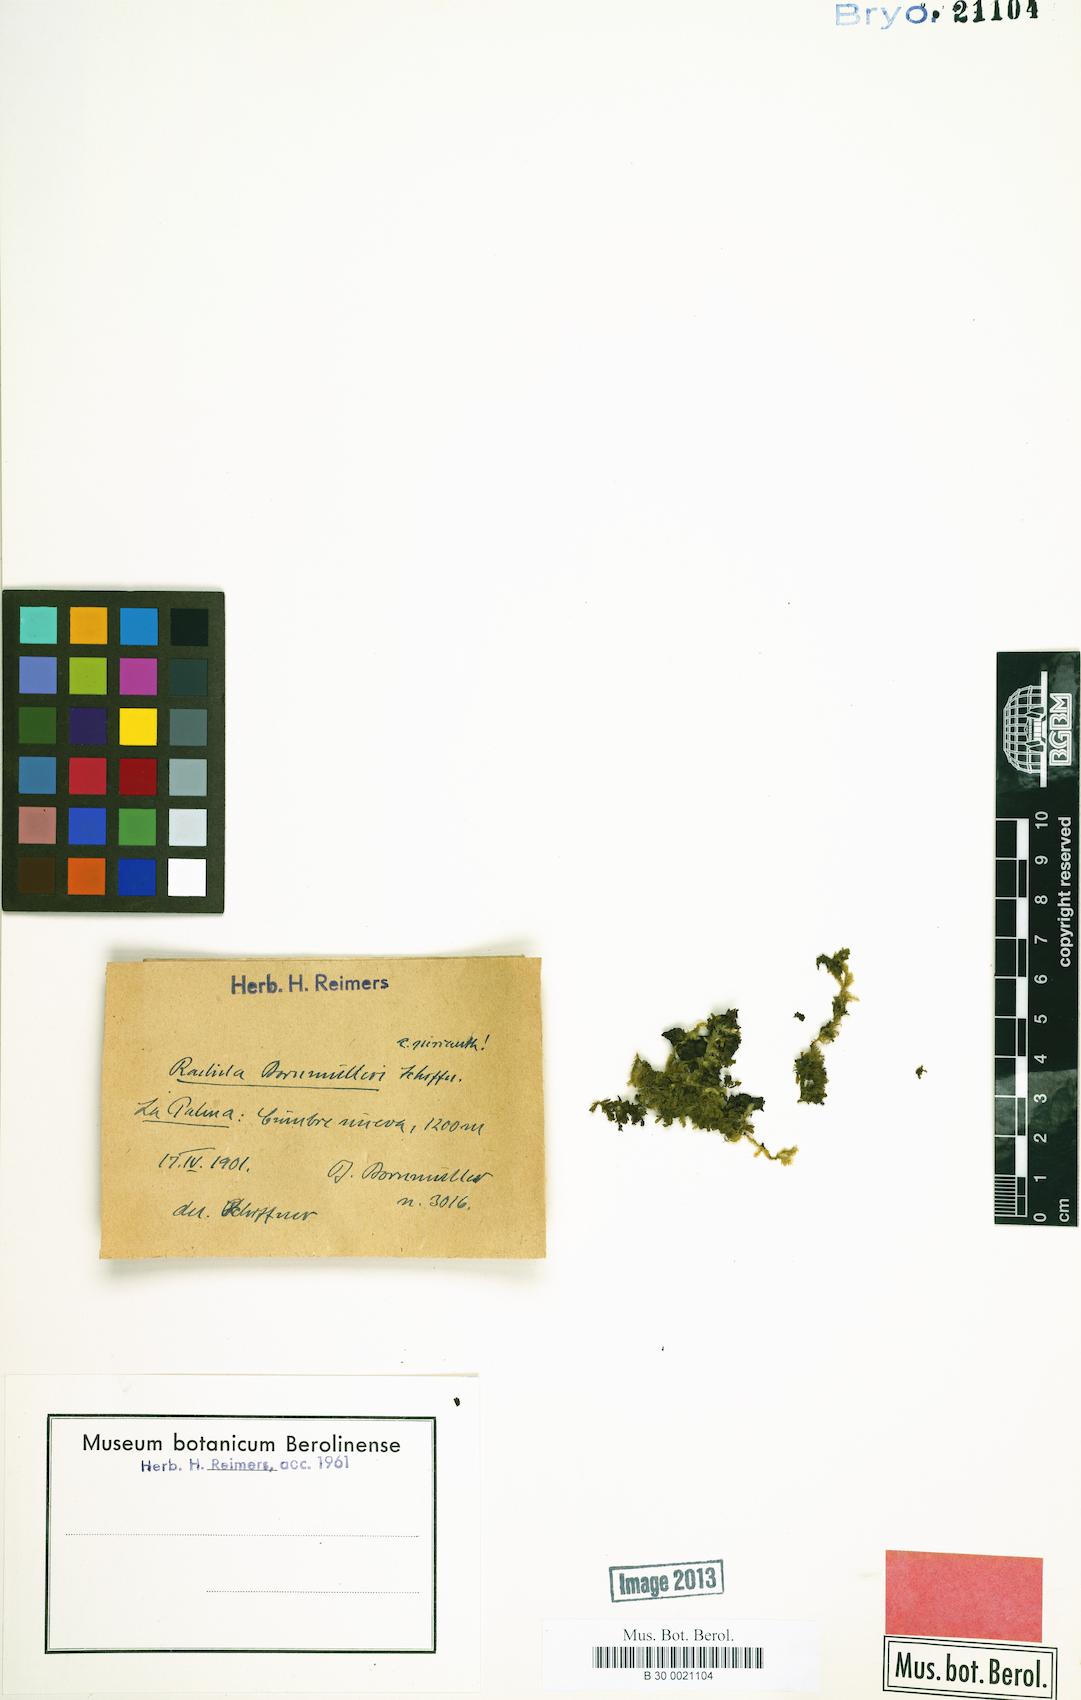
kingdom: Plantae
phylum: Marchantiophyta
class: Jungermanniopsida
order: Porellales
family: Radulaceae
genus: Radula
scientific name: Radula lindenbergiana
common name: Lindenberg's scalewort
